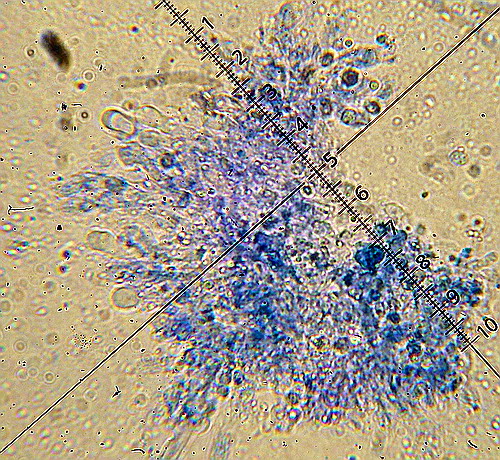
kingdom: Fungi
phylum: Basidiomycota
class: Agaricomycetes
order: Trechisporales
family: Sistotremataceae
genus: Trechispora
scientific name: Trechispora stevensonii
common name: støvende vathinde
